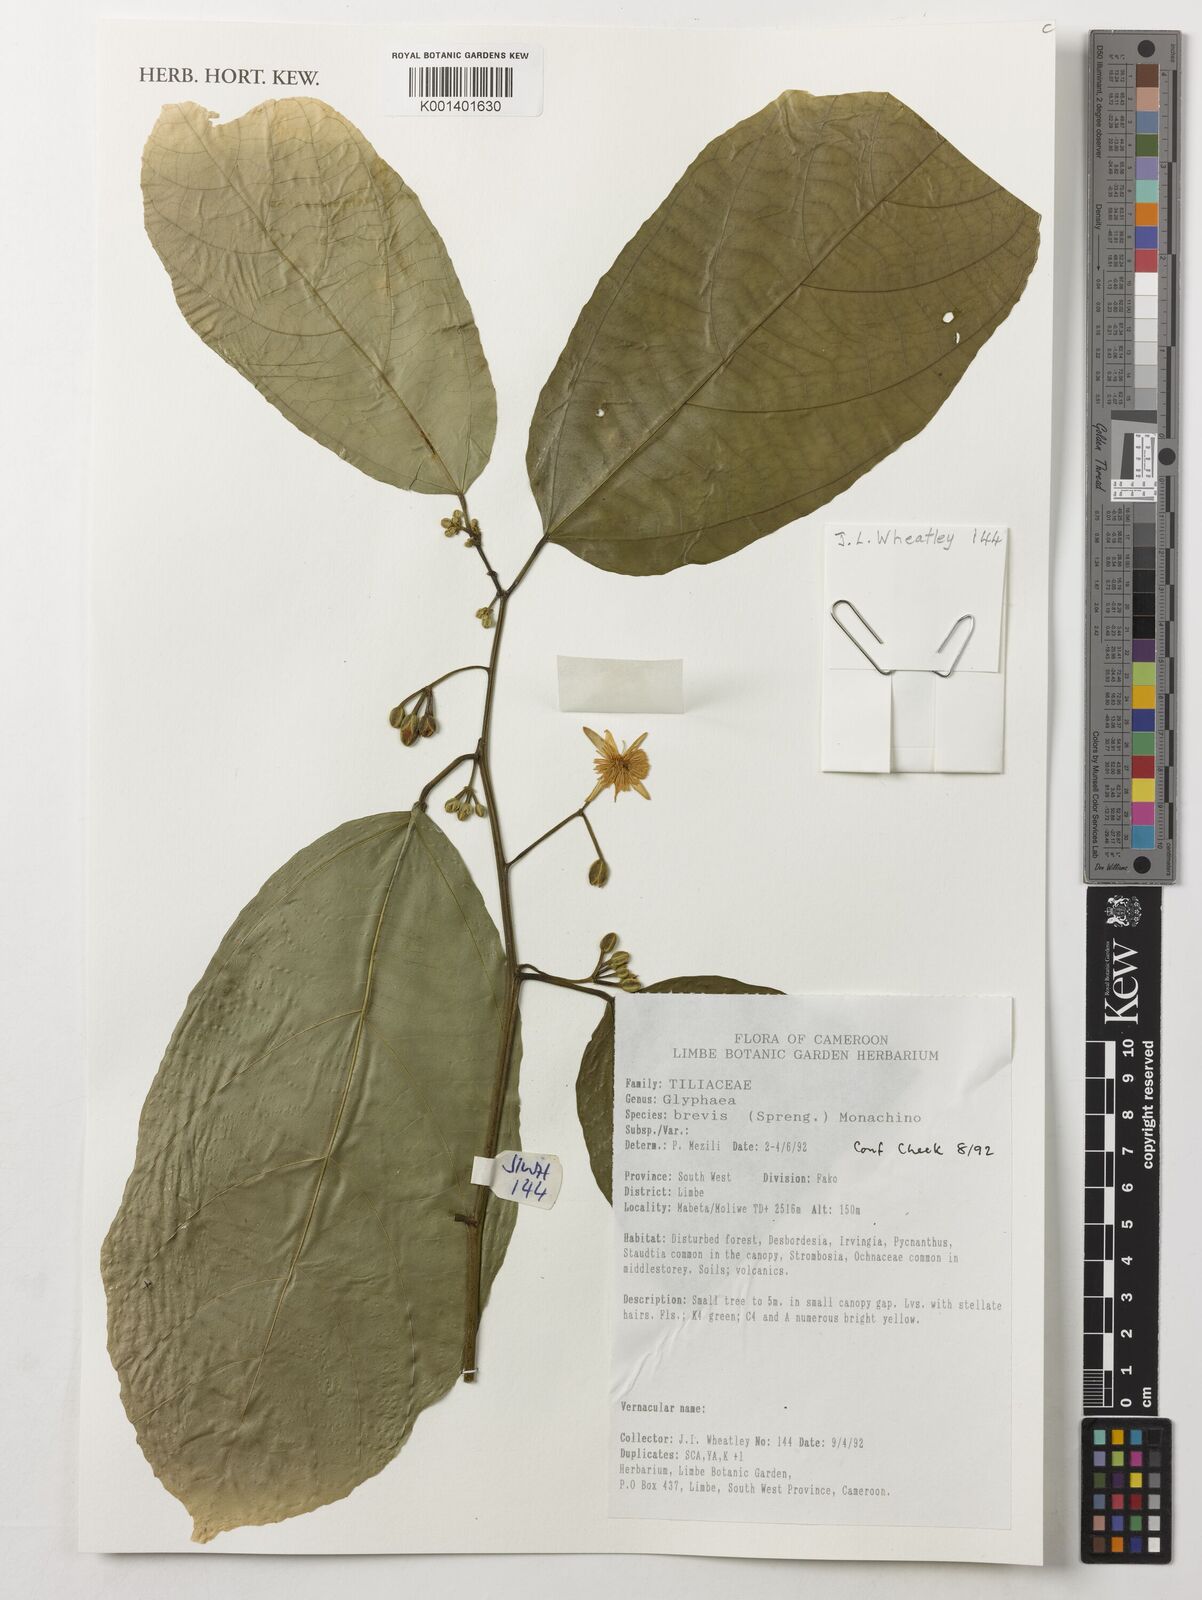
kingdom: Plantae
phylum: Tracheophyta
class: Magnoliopsida
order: Malvales
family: Malvaceae
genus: Glyphaea
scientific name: Glyphaea brevis
